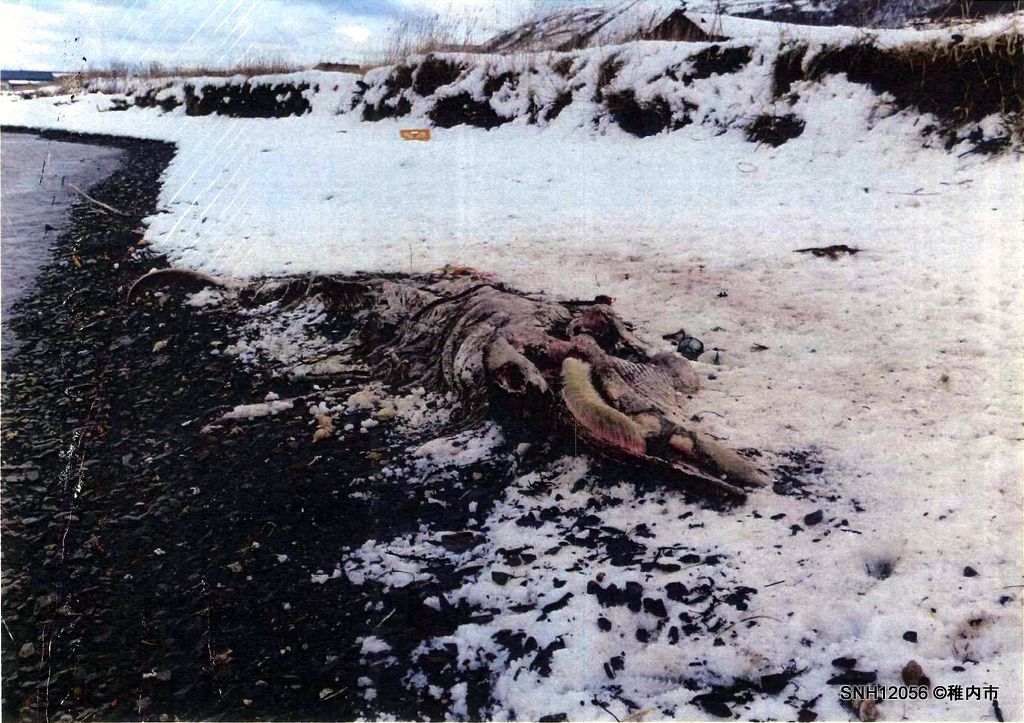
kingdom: Animalia
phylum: Chordata
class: Mammalia
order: Cetacea
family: Balaenopteridae
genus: Balaenoptera
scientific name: Balaenoptera acutorostrata
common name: Minke whale
